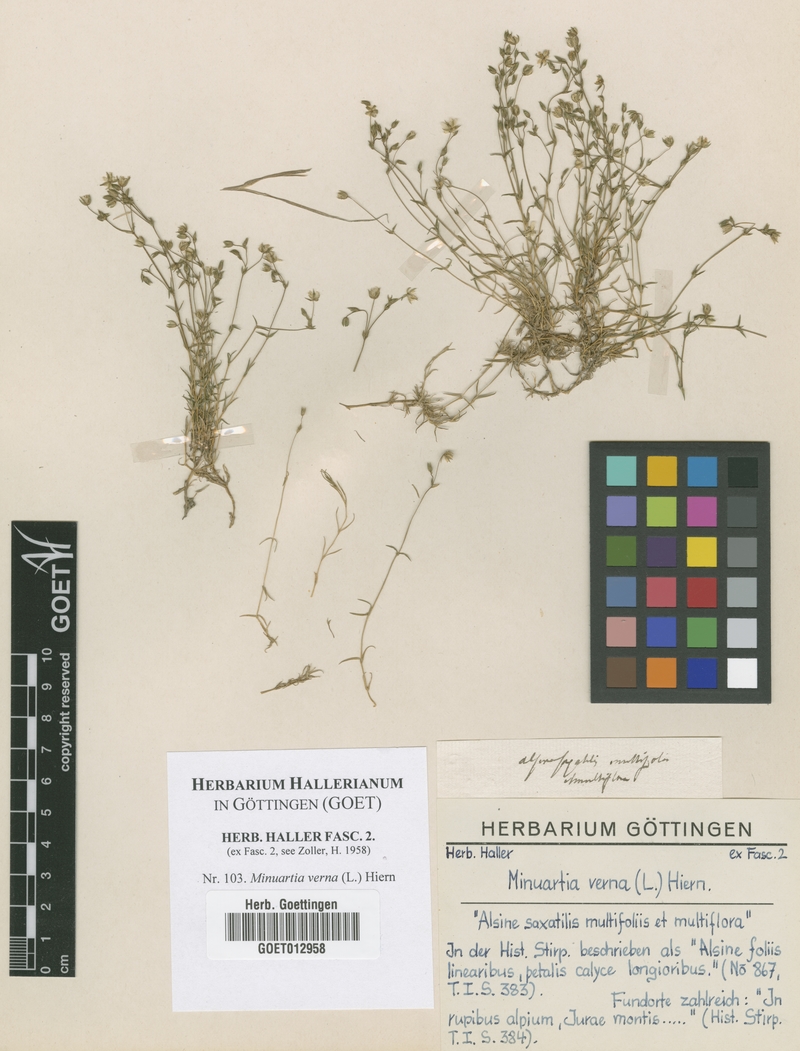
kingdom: Plantae
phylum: Tracheophyta
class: Magnoliopsida
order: Caryophyllales
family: Caryophyllaceae
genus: Sabulina
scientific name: Sabulina verna
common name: Spring sandwort
